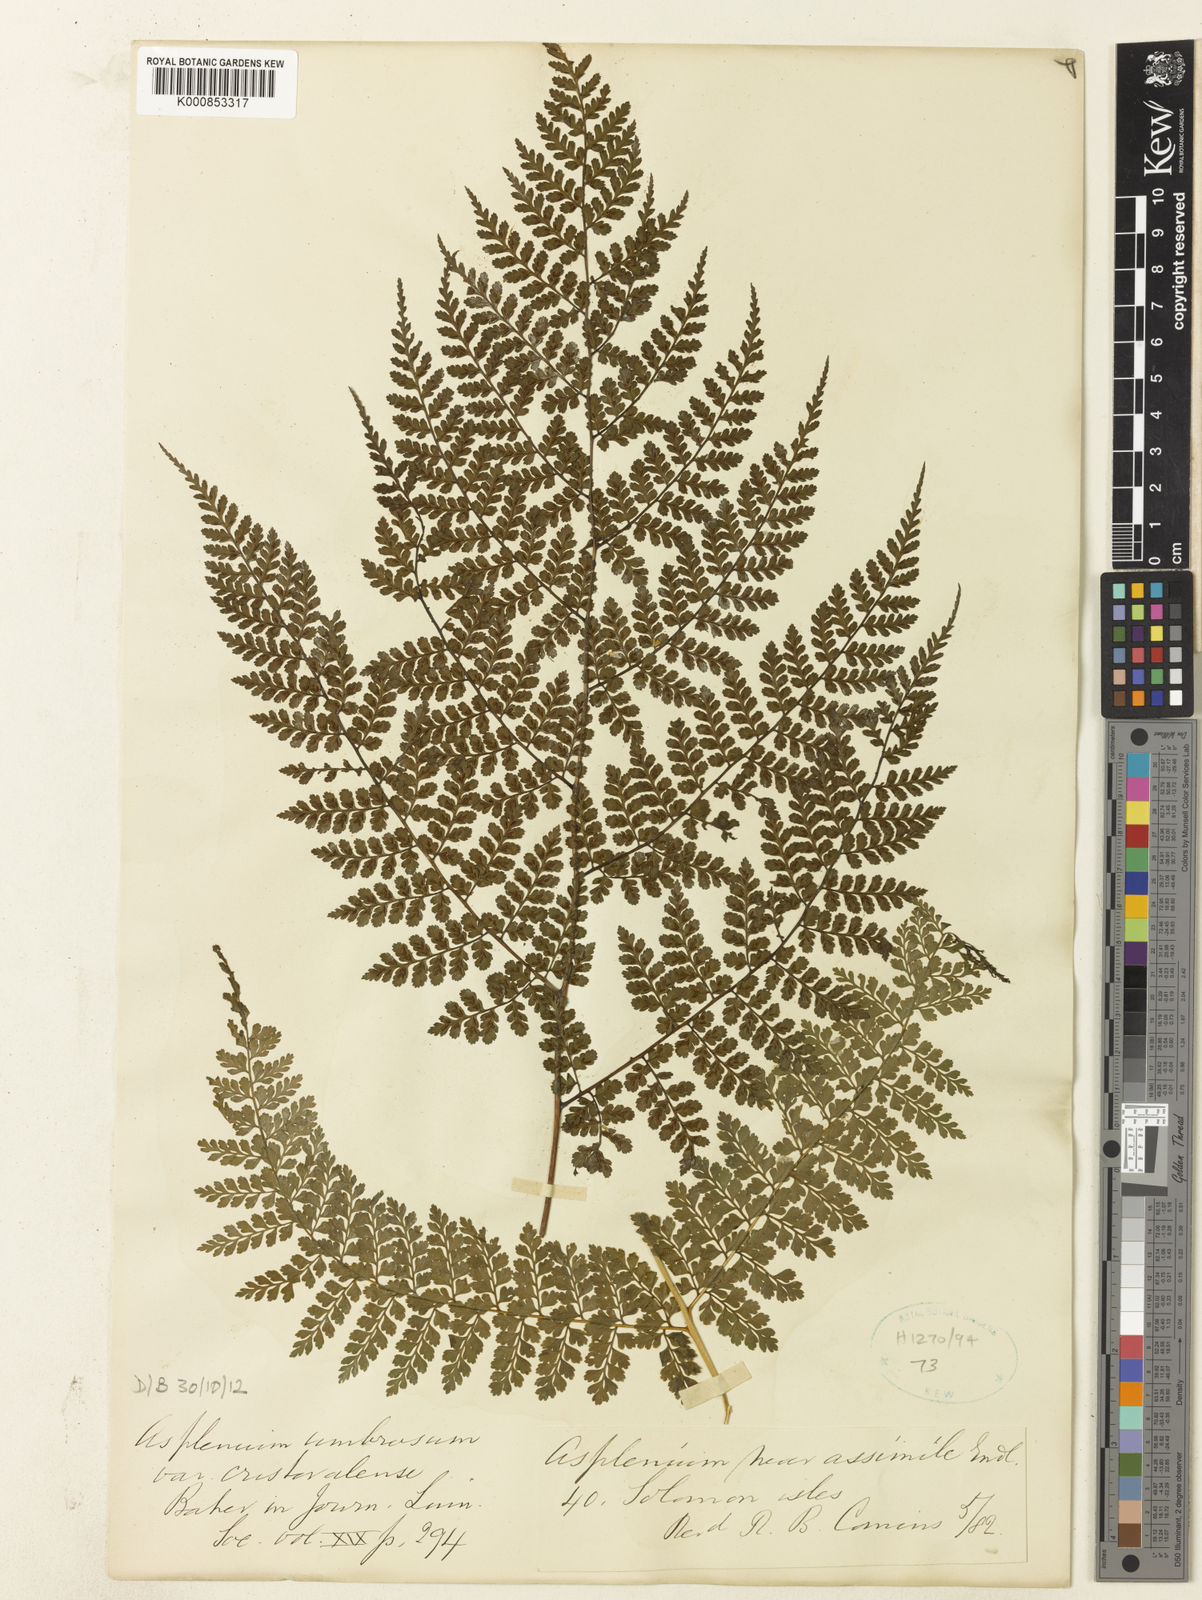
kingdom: Plantae
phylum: Tracheophyta
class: Polypodiopsida
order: Polypodiales
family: Athyriaceae
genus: Diplazium
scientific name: Diplazium caudatum
